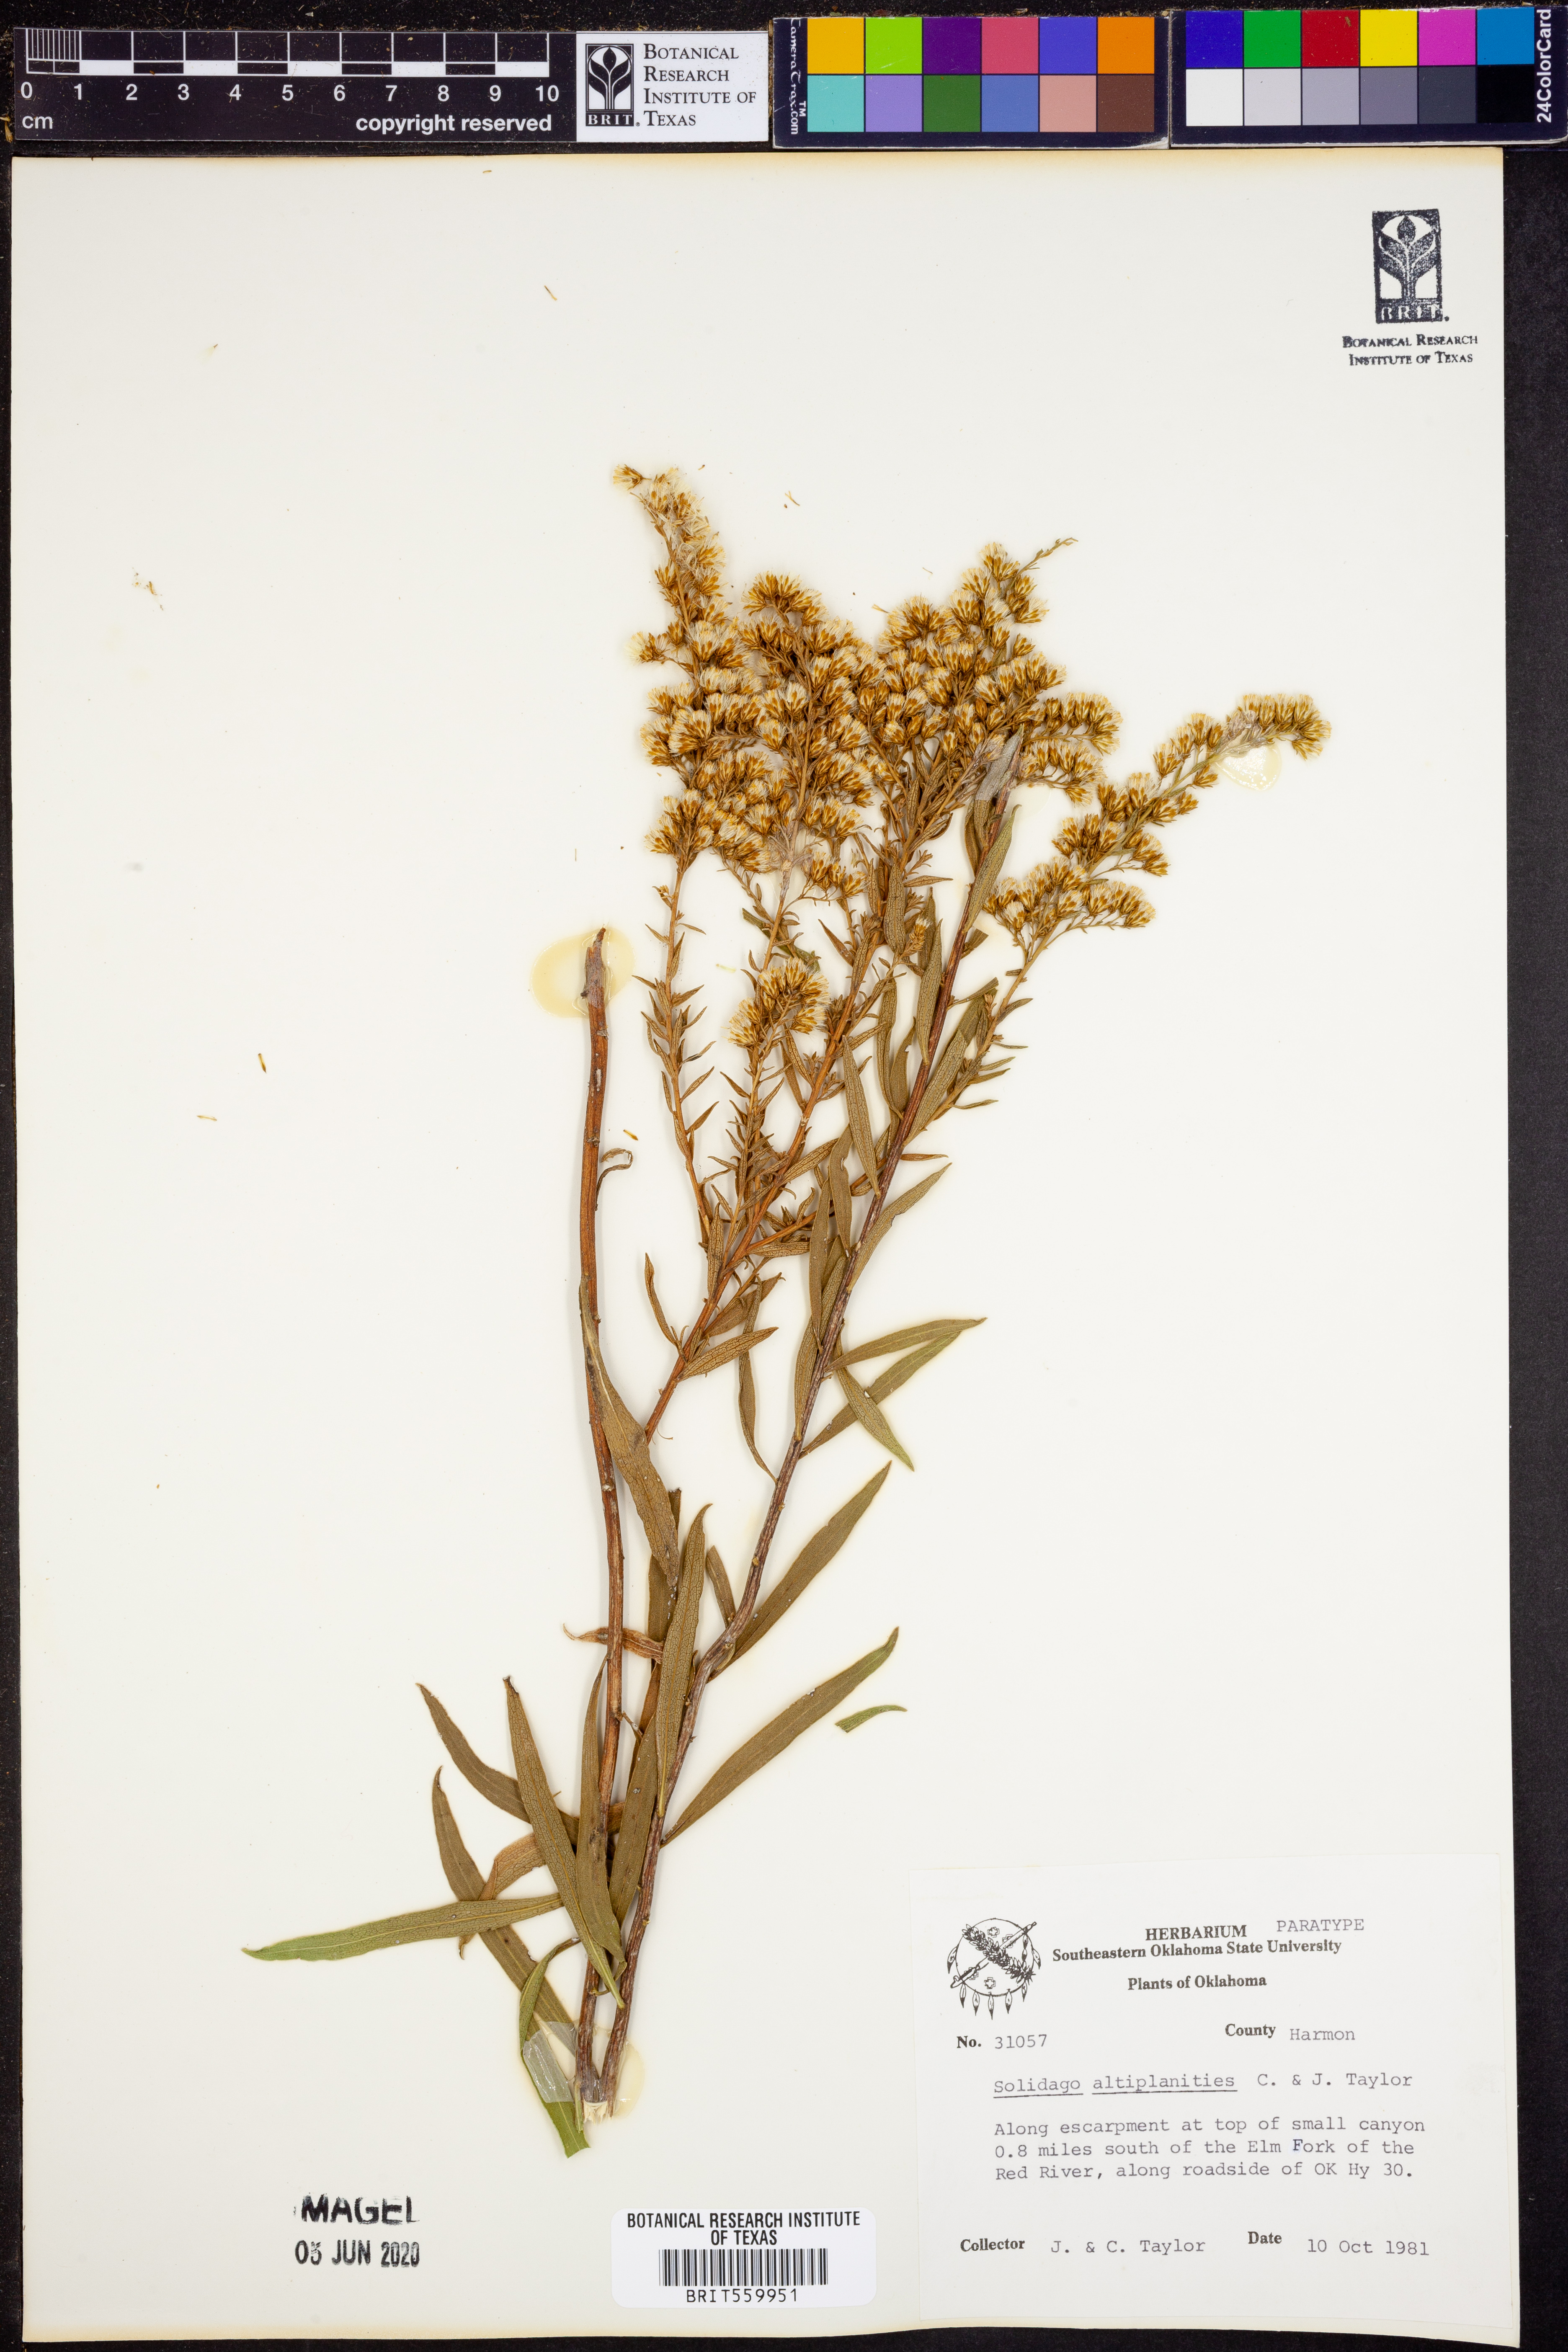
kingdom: Plantae
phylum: Tracheophyta
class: Magnoliopsida
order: Asterales
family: Asteraceae
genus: Solidago
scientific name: Solidago altiplanities
